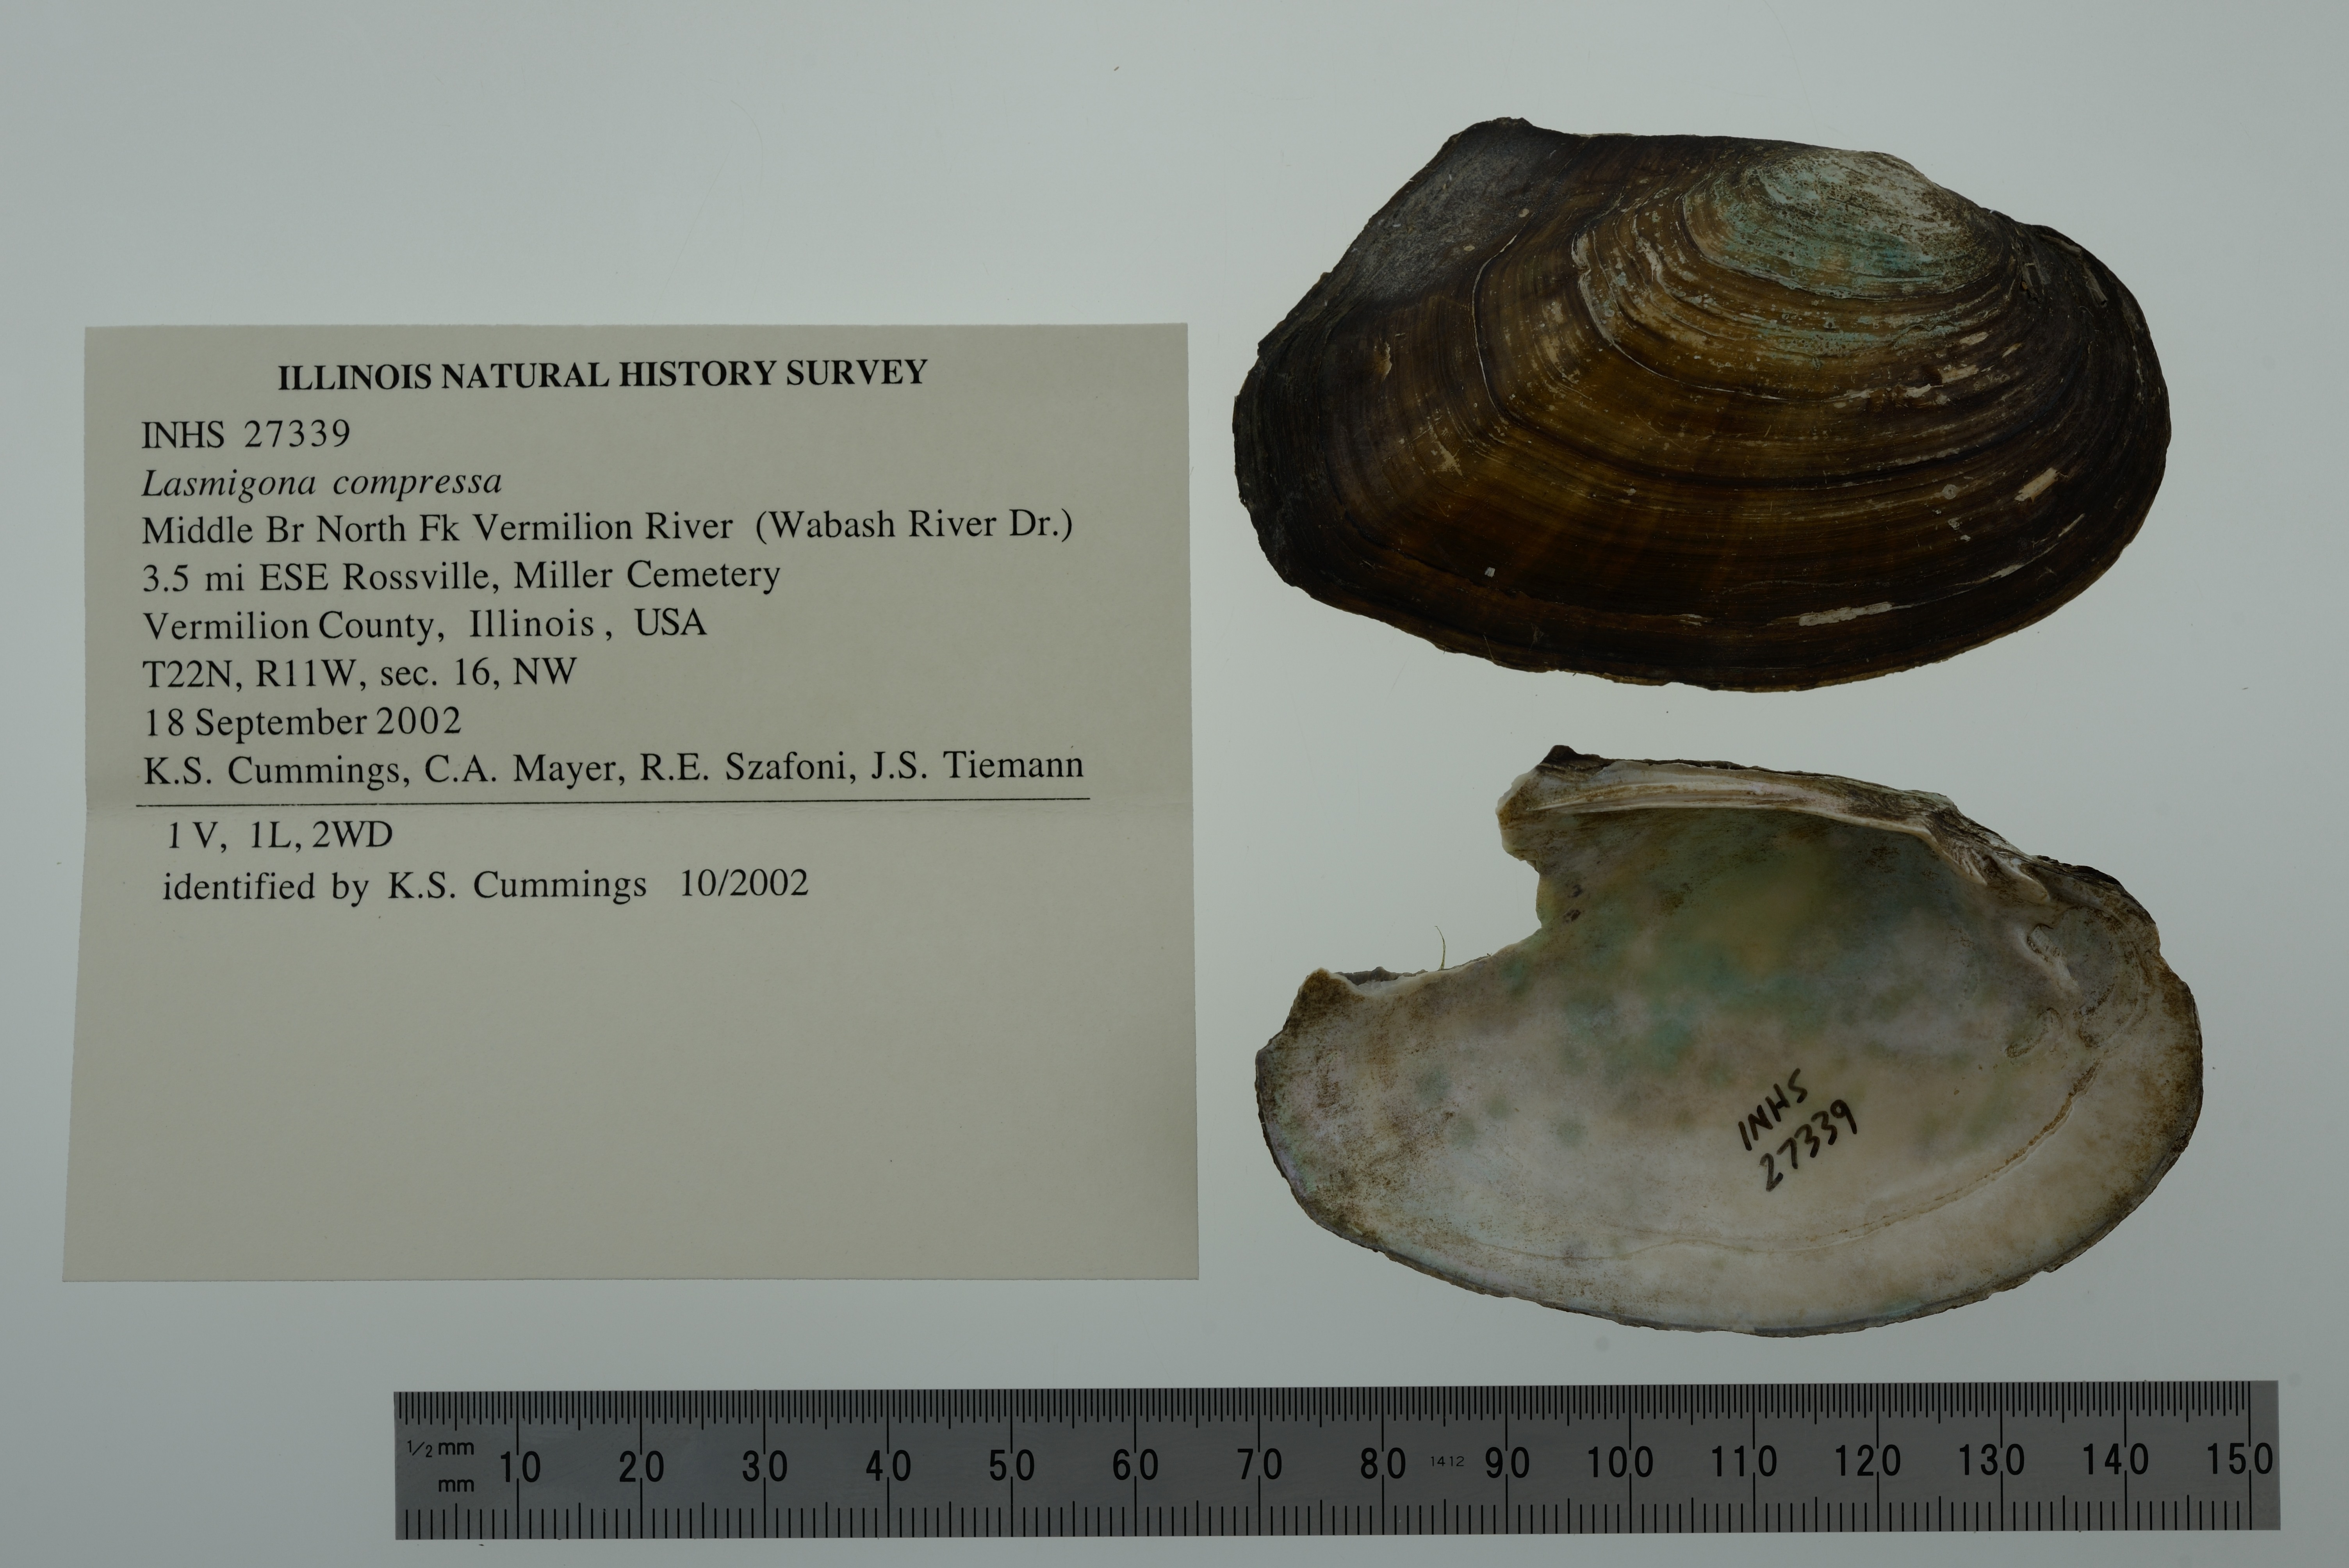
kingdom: Animalia
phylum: Mollusca
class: Bivalvia
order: Unionida
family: Unionidae
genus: Lasmigona
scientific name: Lasmigona compressa
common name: Creek heelsplitter
